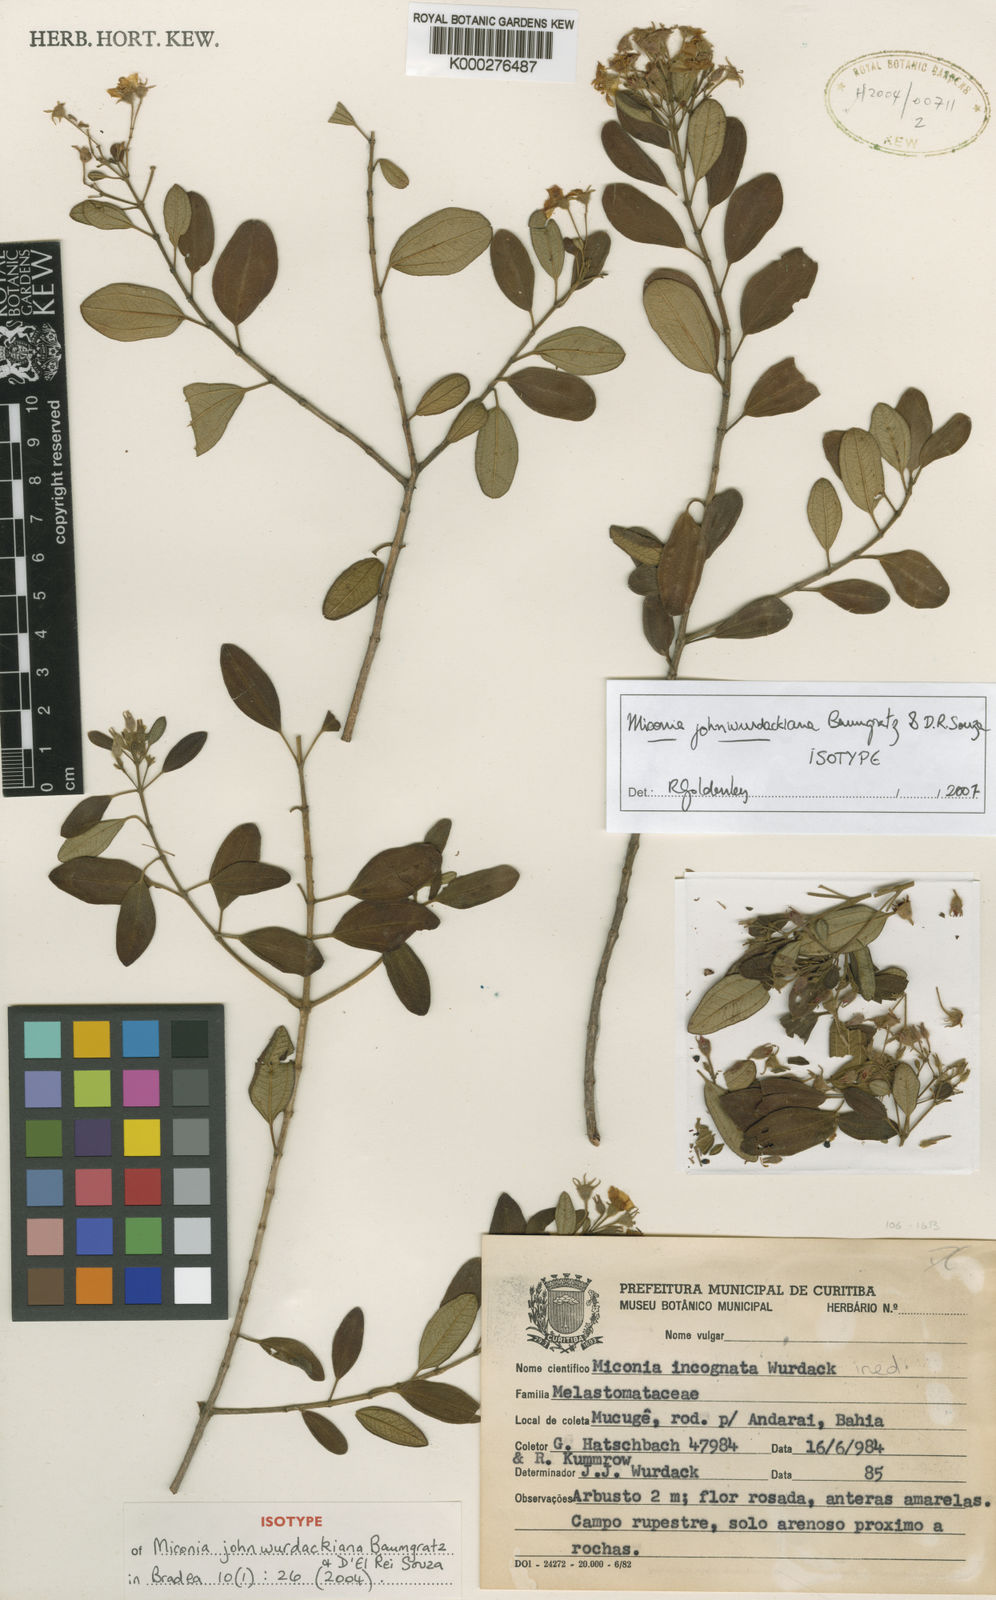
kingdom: Plantae
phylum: Tracheophyta
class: Magnoliopsida
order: Myrtales
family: Melastomataceae
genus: Rupestrea
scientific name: Rupestrea johnwurdackiana
